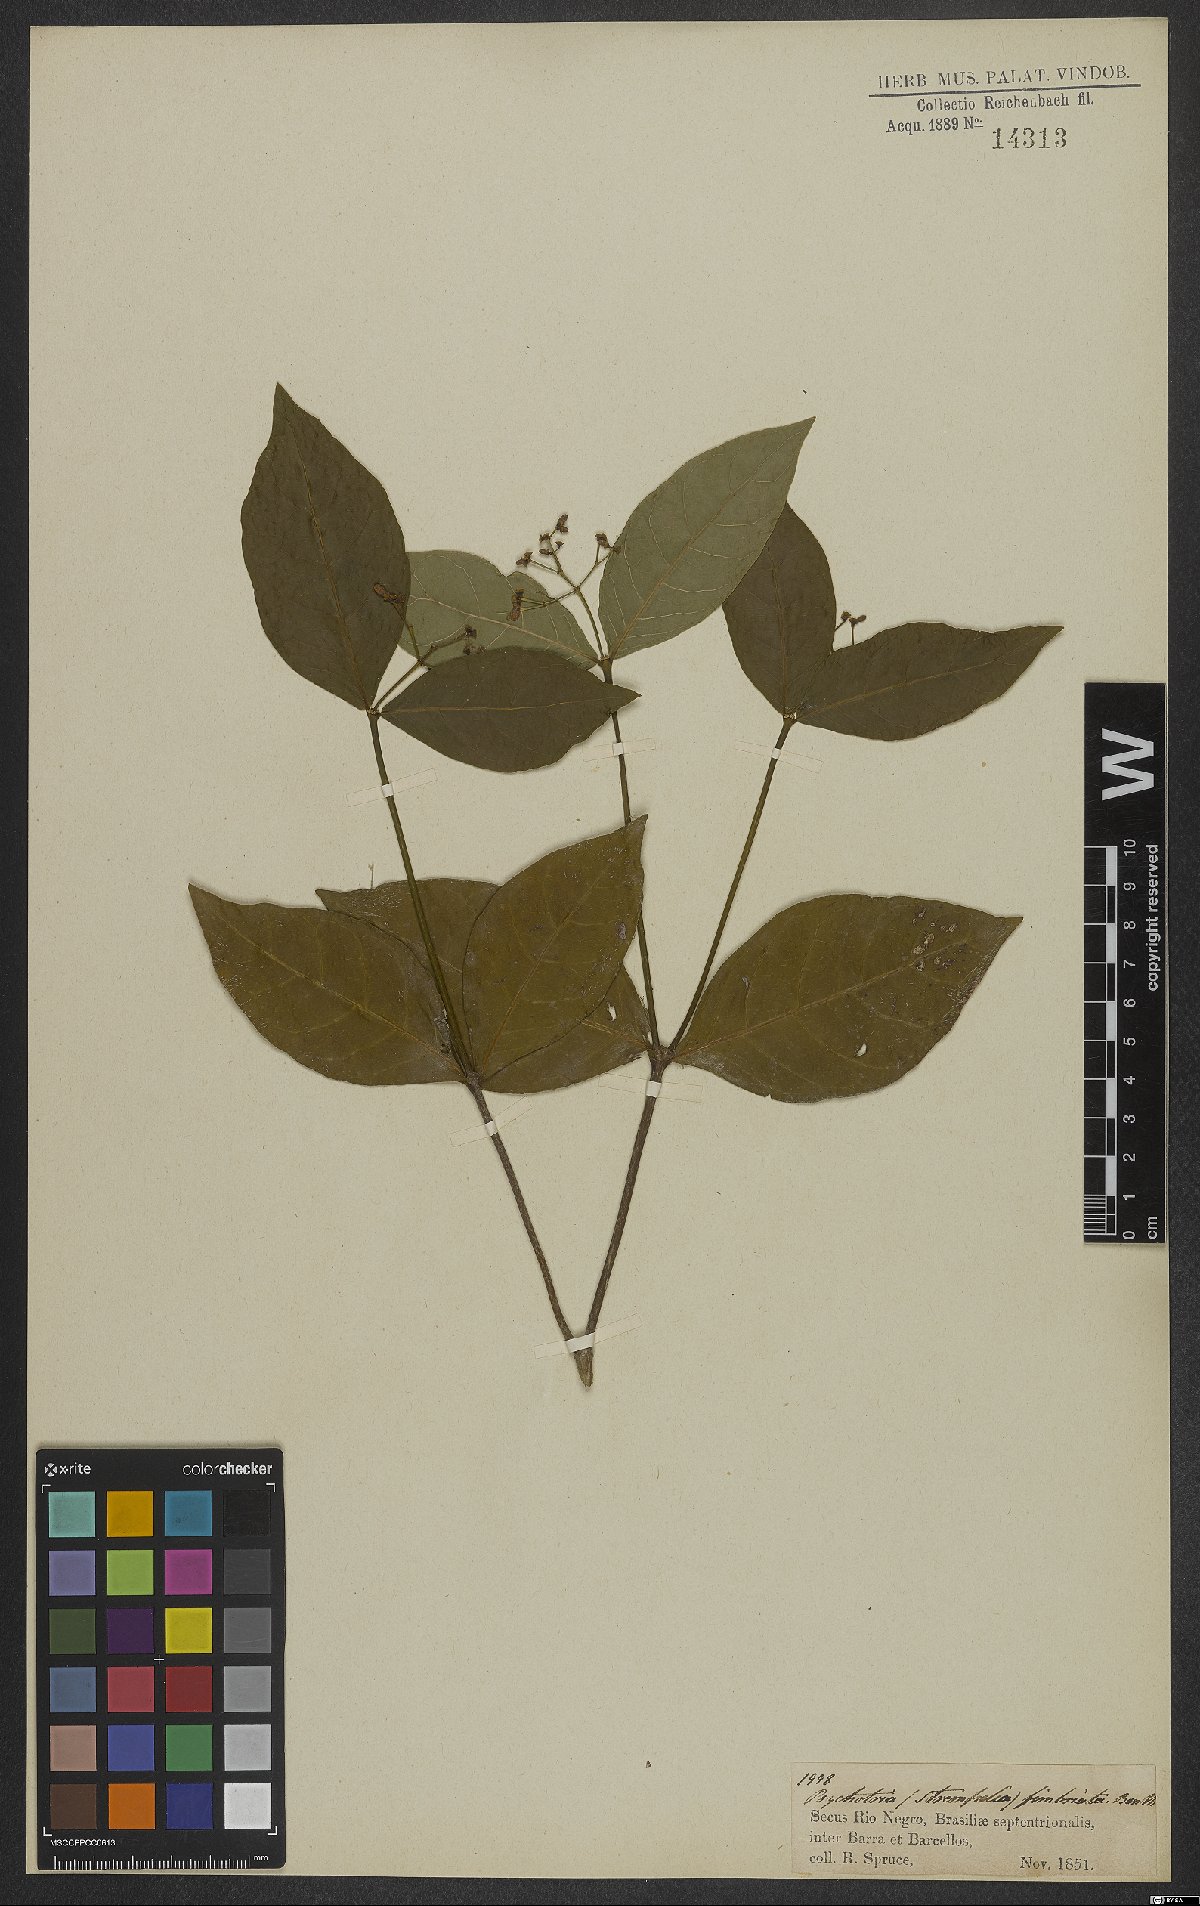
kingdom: Plantae
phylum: Tracheophyta
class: Magnoliopsida
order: Gentianales
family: Rubiaceae
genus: Rudgea
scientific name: Rudgea cornifolia
